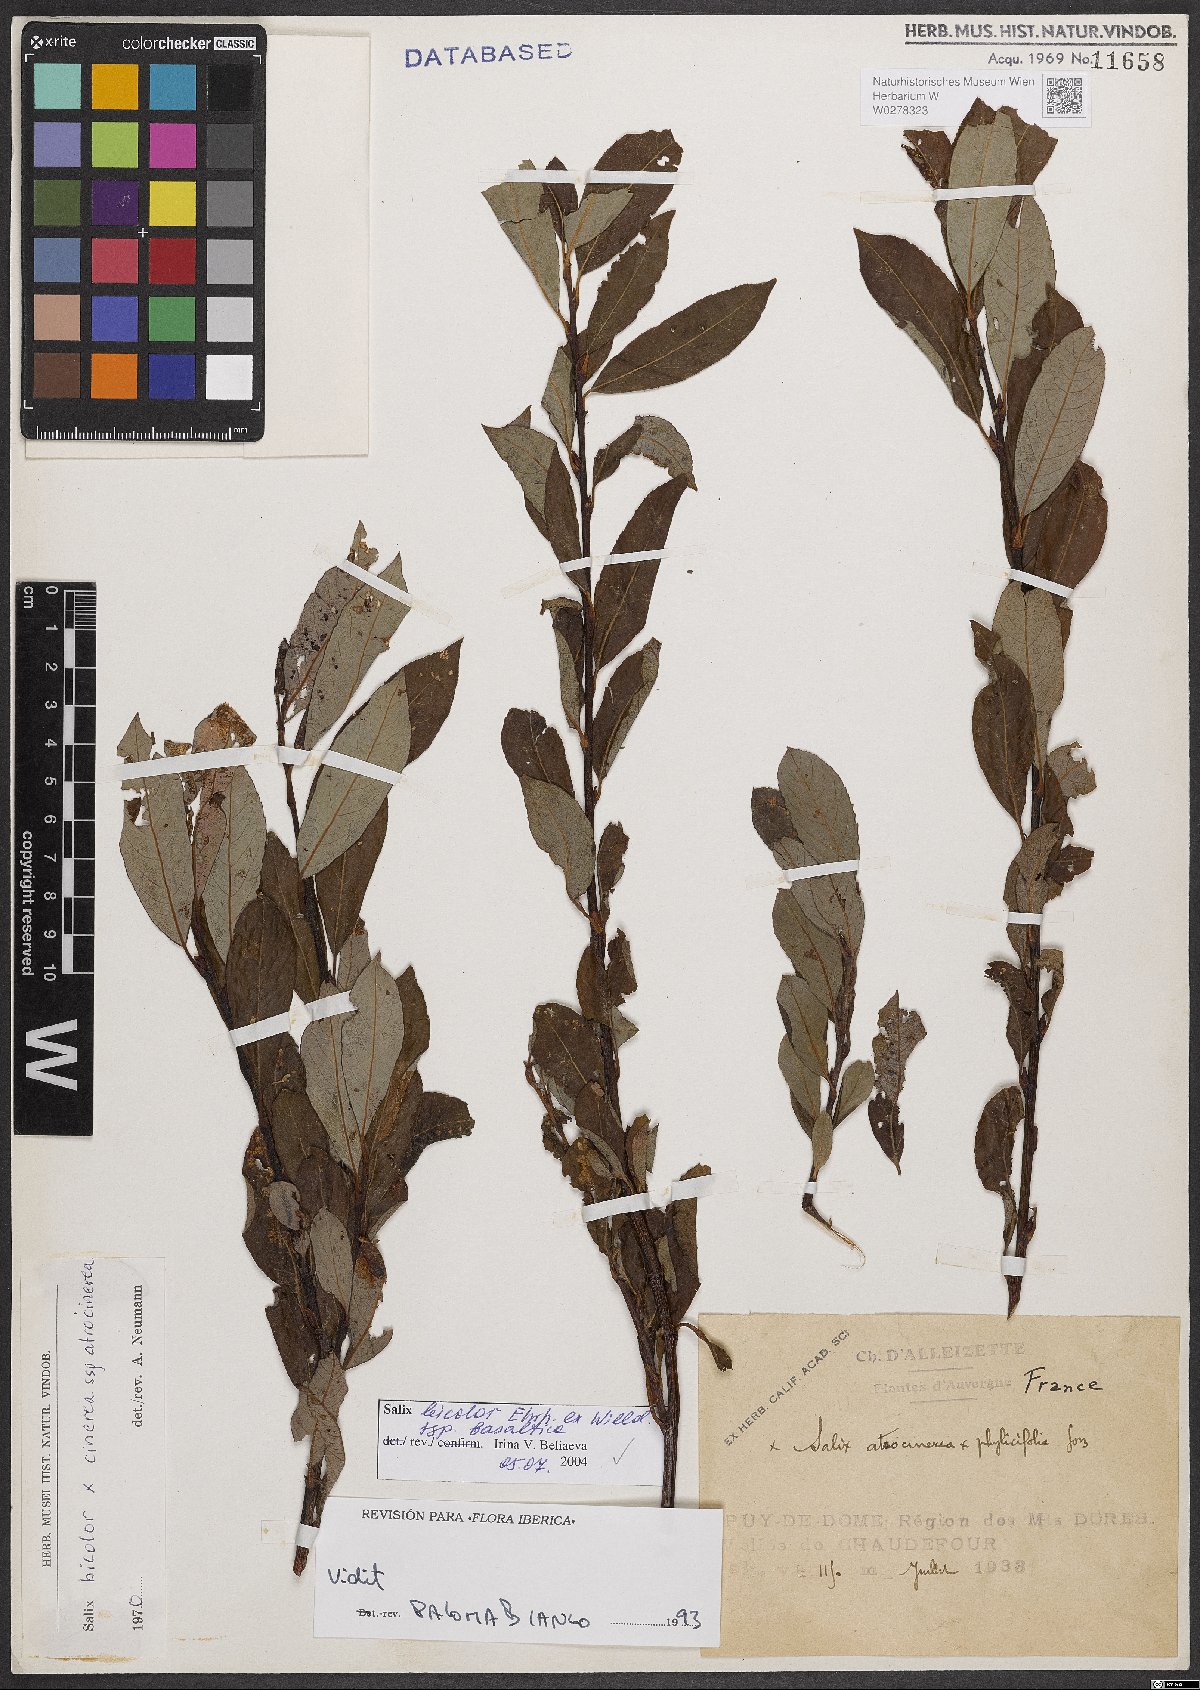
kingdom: Plantae
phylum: Tracheophyta
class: Magnoliopsida
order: Malpighiales
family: Salicaceae
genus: Salix
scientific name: Salix basaltica
